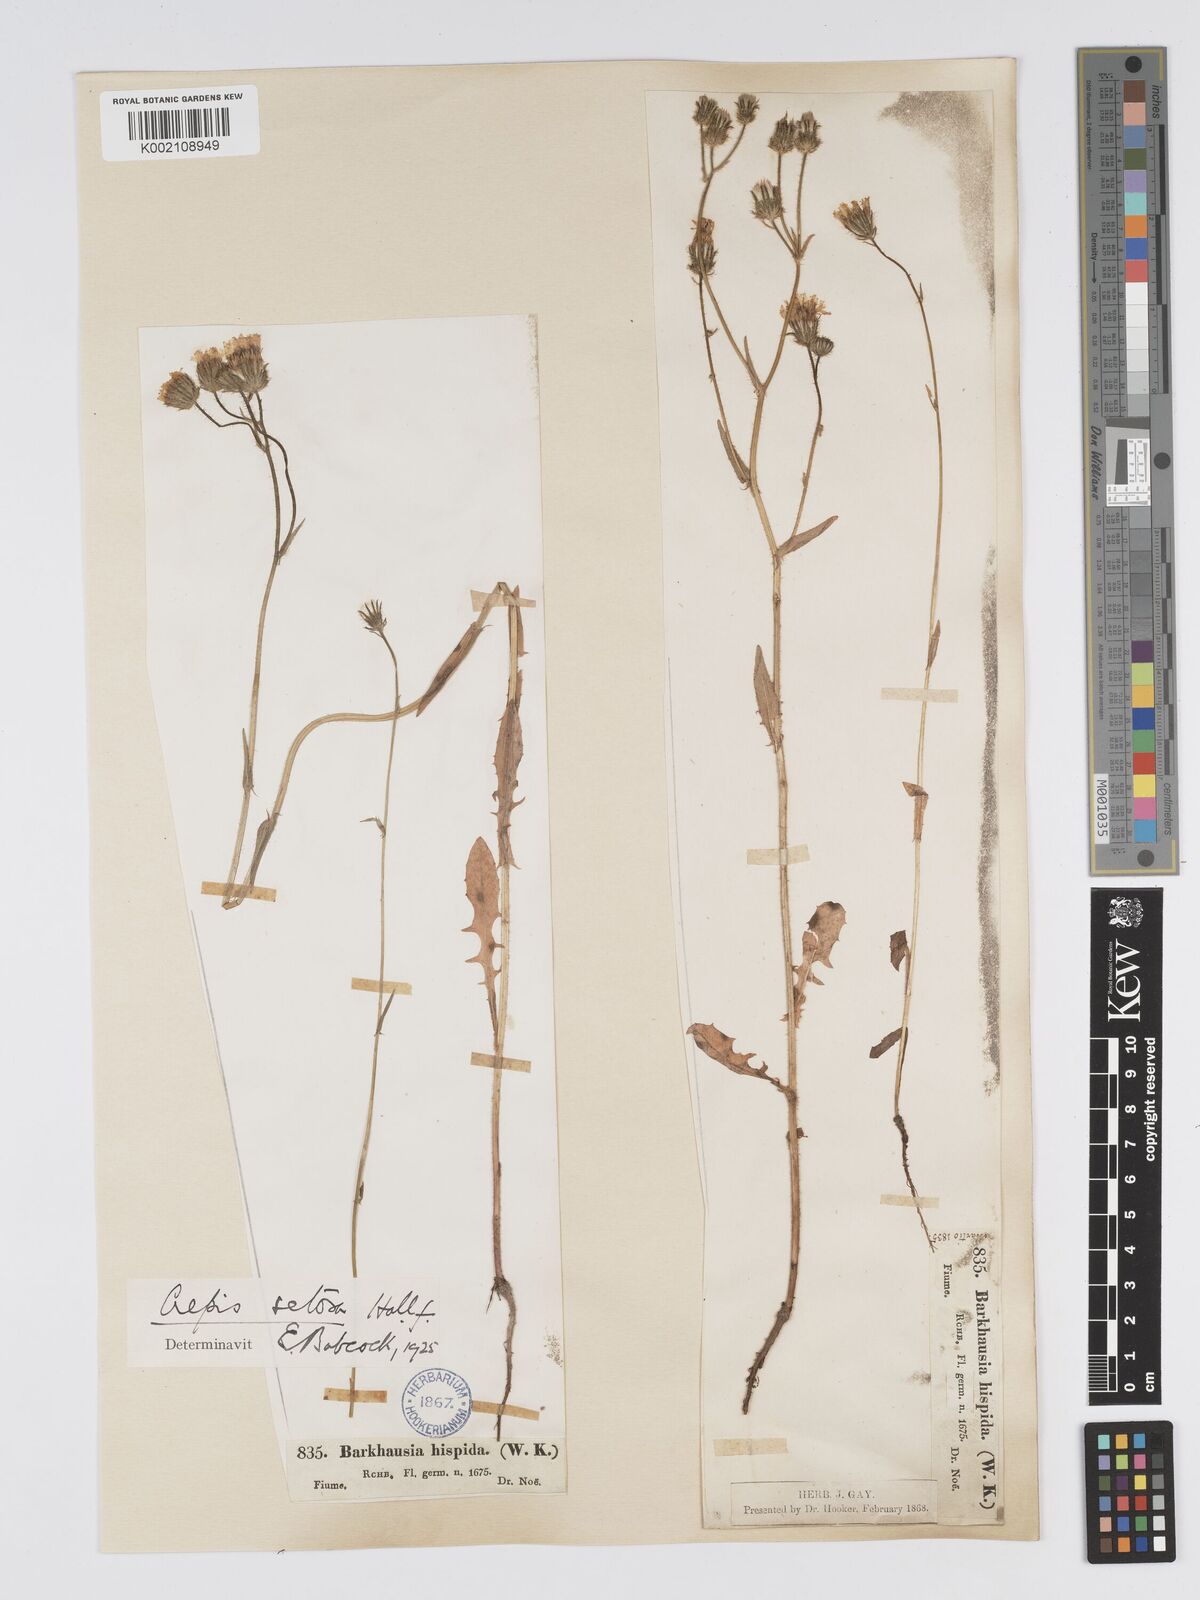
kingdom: Plantae
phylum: Tracheophyta
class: Magnoliopsida
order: Asterales
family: Asteraceae
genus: Crepis
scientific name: Crepis setosa
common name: Bristly hawk's-beard
